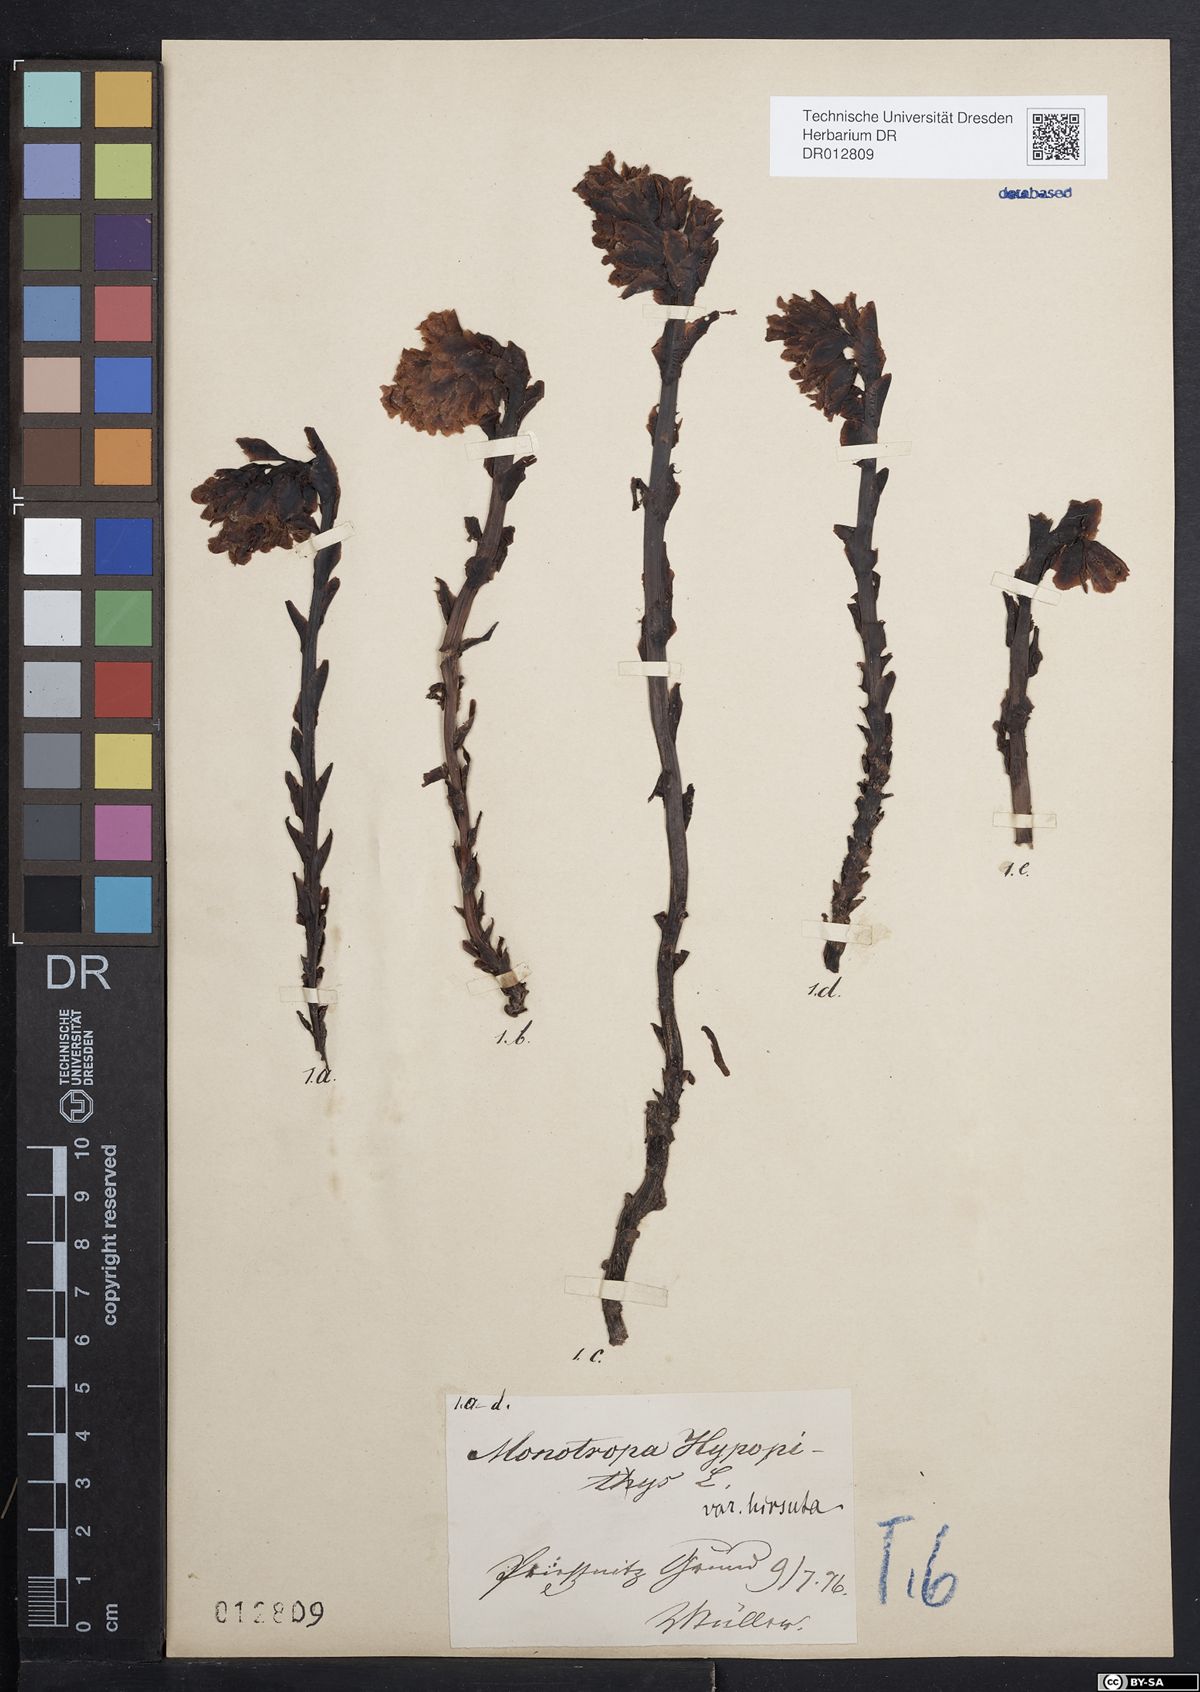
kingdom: Plantae
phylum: Tracheophyta
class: Magnoliopsida
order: Ericales
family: Ericaceae
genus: Hypopitys
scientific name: Hypopitys monotropa
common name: Yellow bird's-nest
